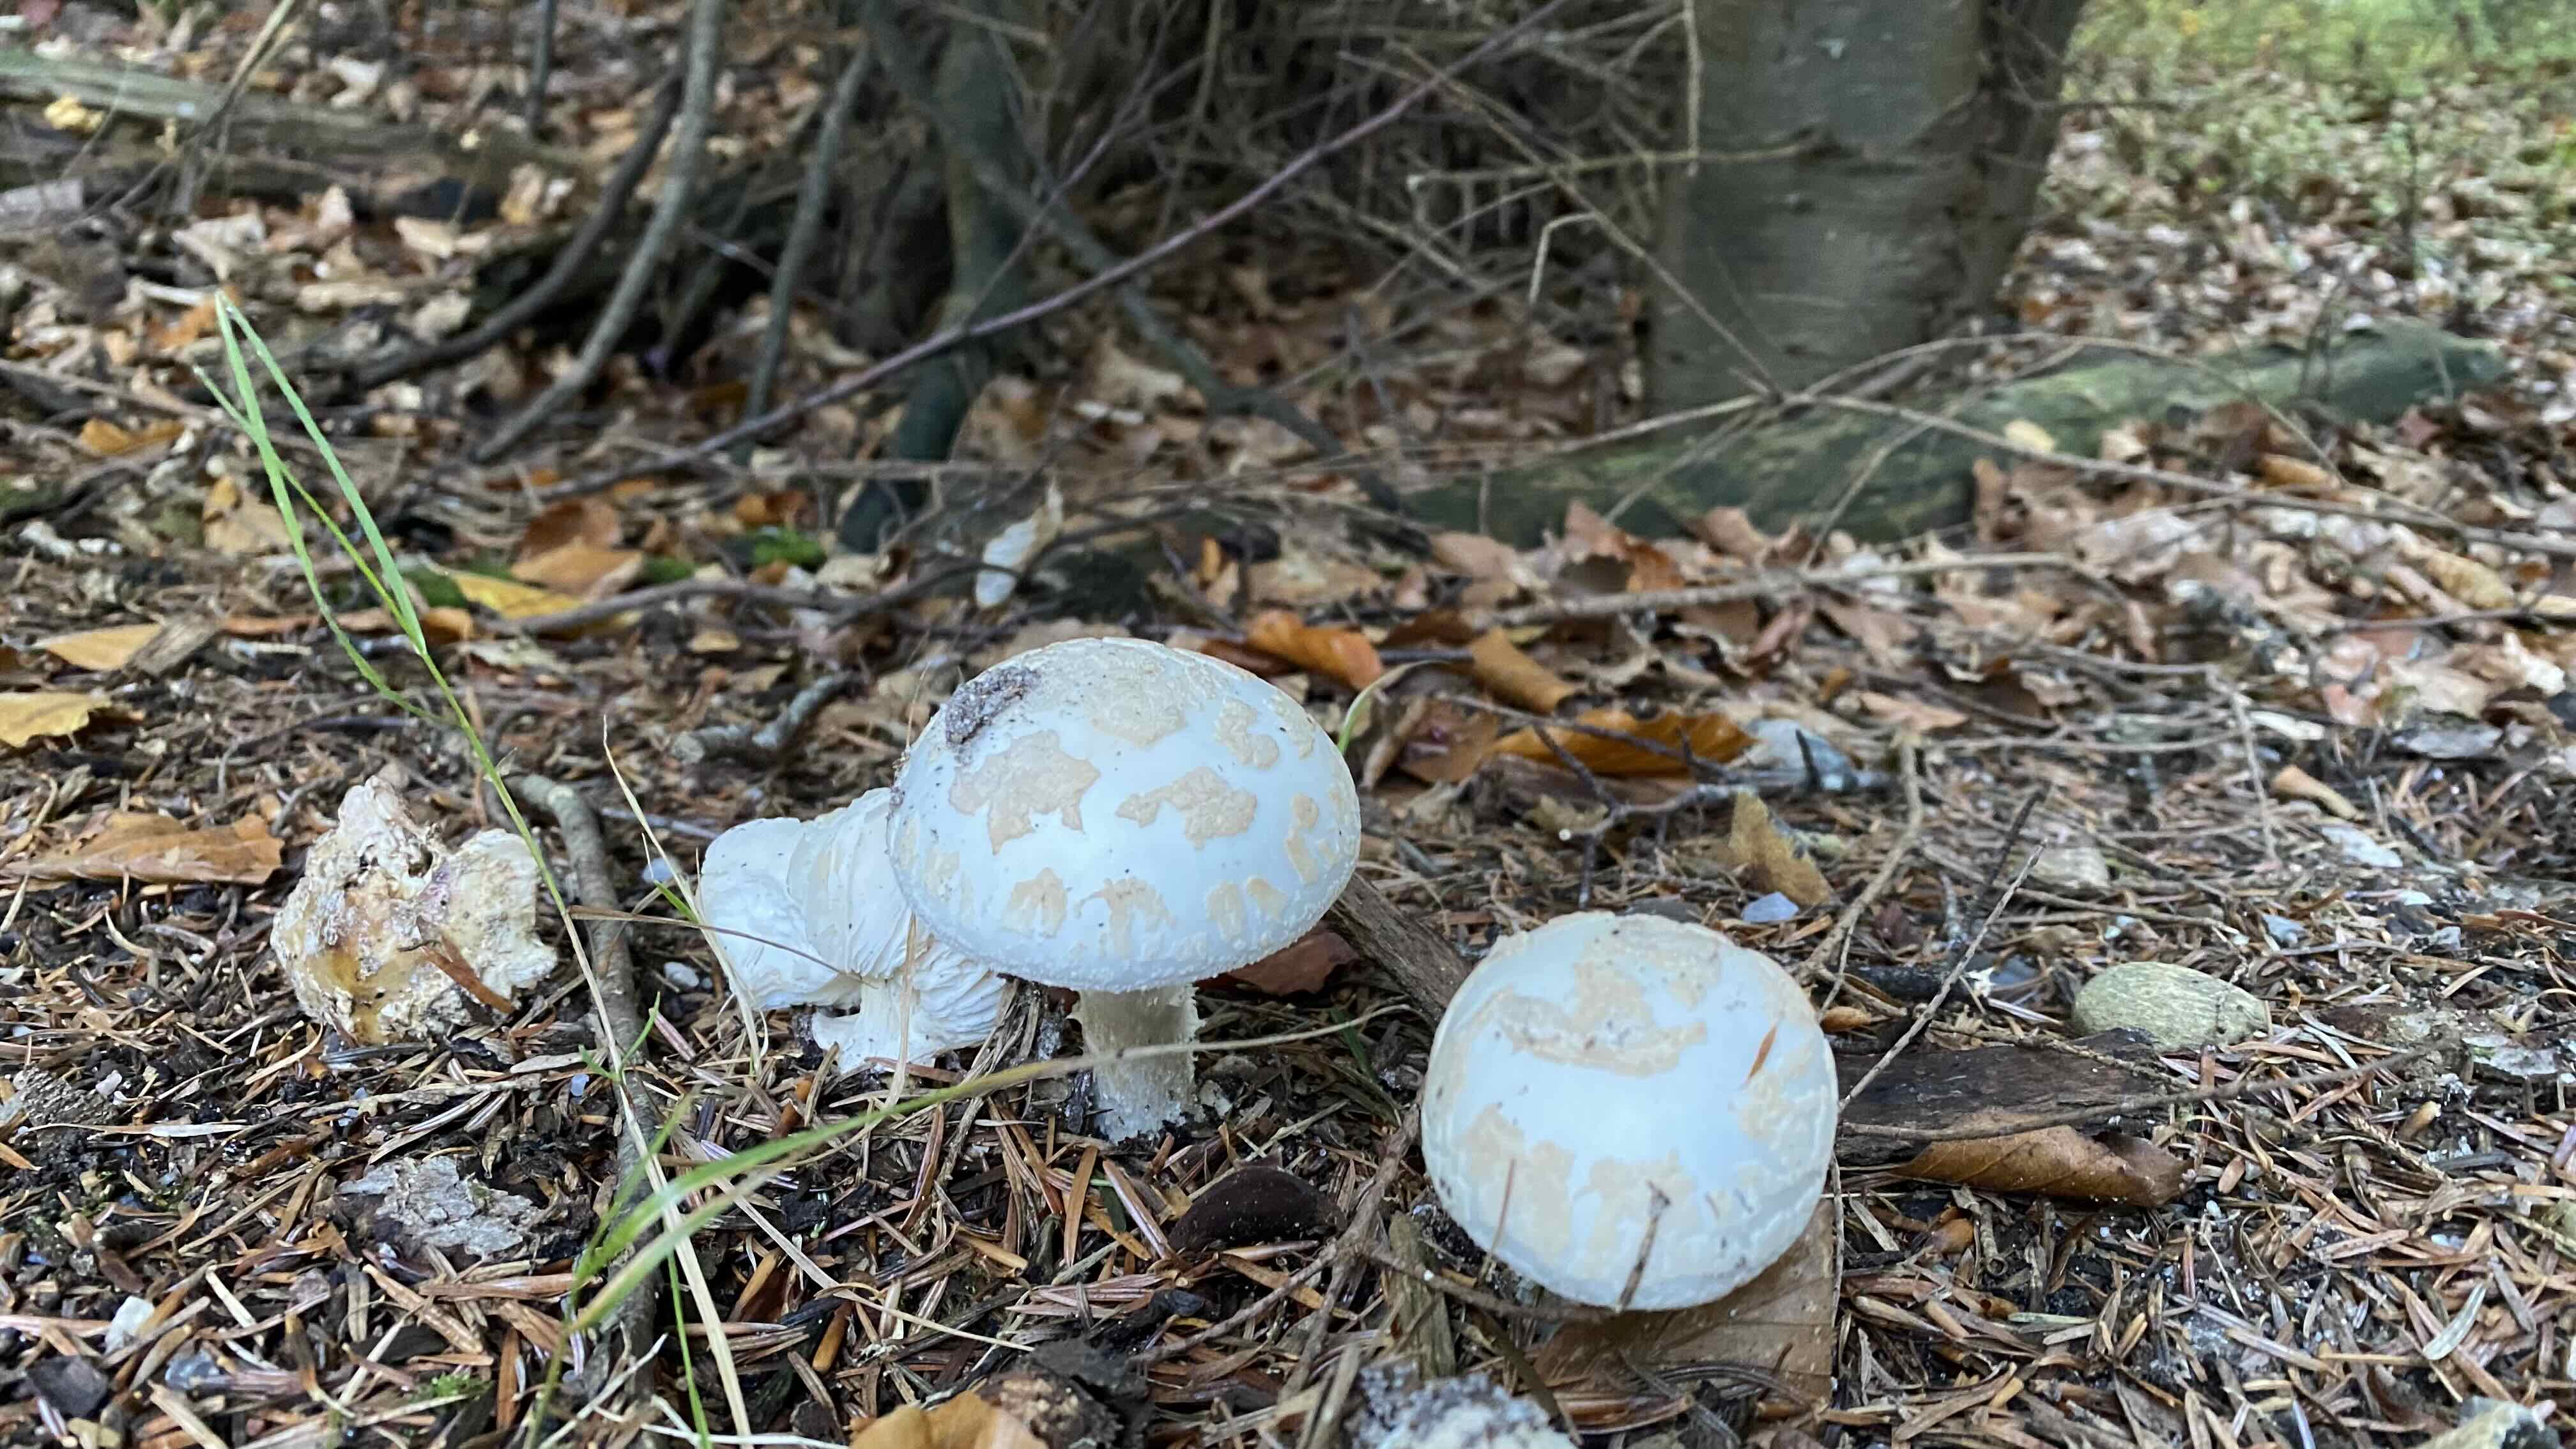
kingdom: Fungi
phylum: Basidiomycota
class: Agaricomycetes
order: Agaricales
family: Amanitaceae
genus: Amanita
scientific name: Amanita citrina
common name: kugleknoldet fluesvamp
